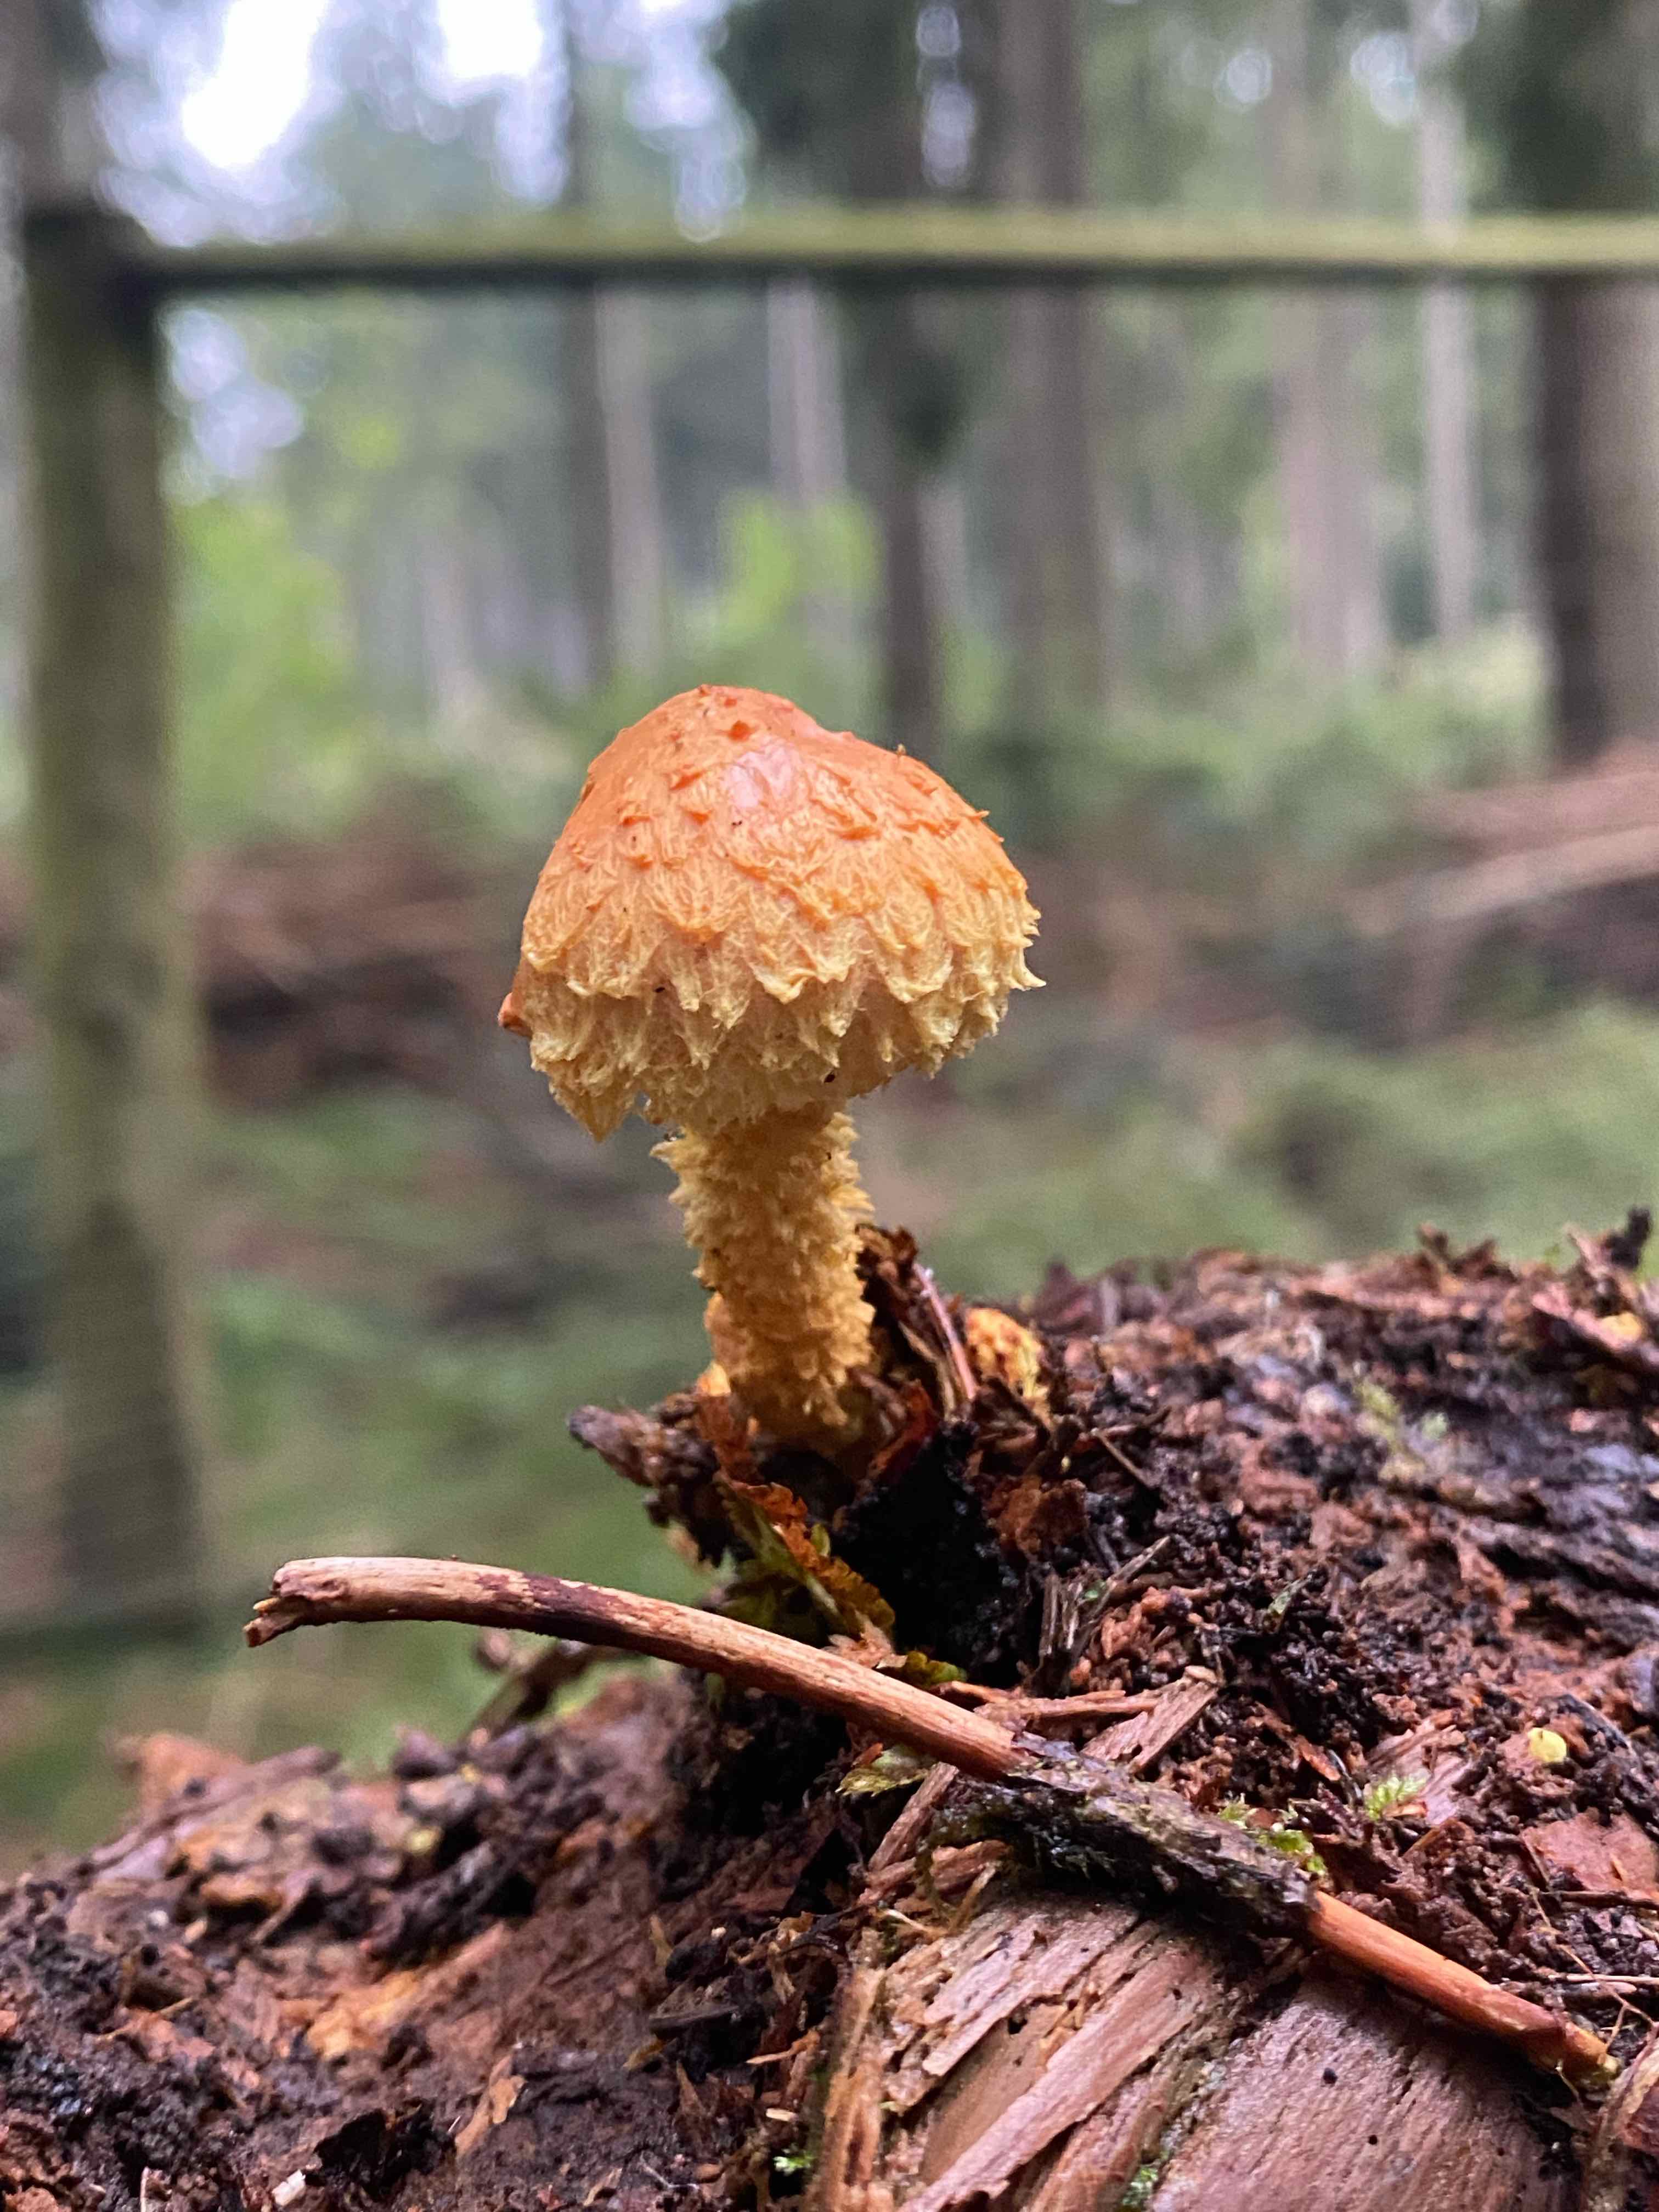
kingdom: Fungi
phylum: Basidiomycota
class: Agaricomycetes
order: Agaricales
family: Strophariaceae
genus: Pholiota
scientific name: Pholiota flammans
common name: flamme-skælhat
